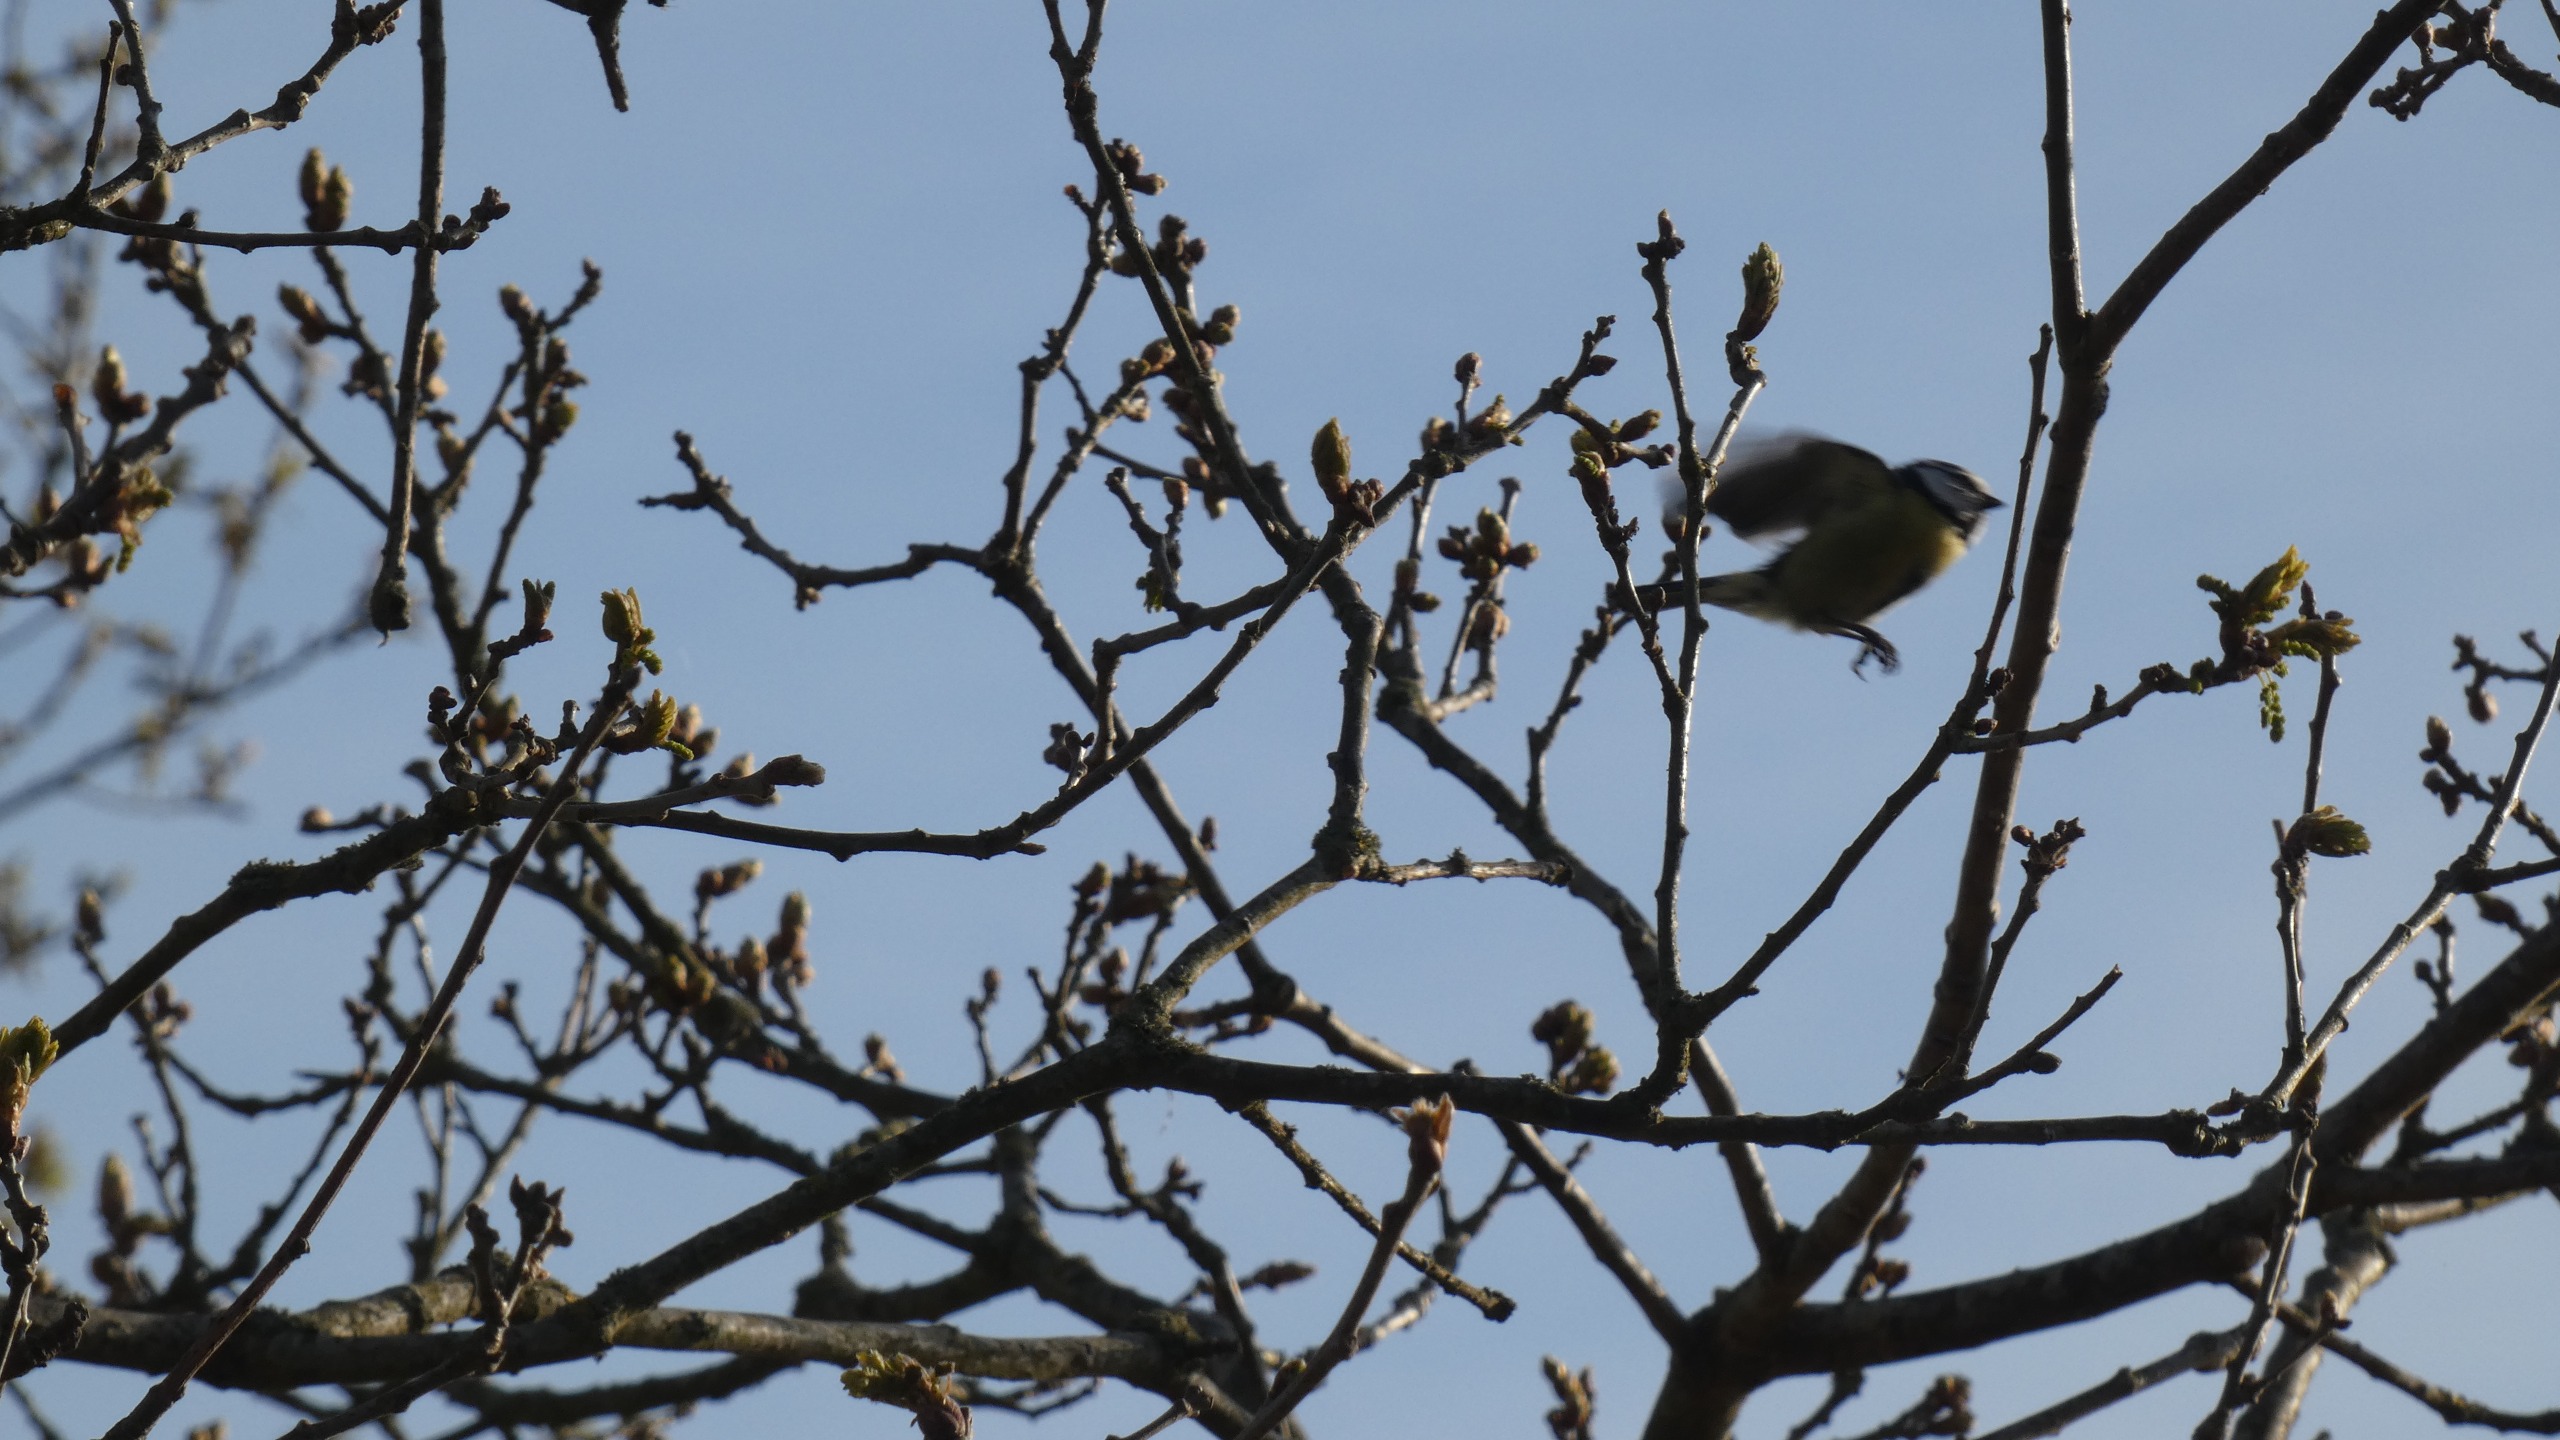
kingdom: Animalia
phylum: Chordata
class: Aves
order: Passeriformes
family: Paridae
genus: Cyanistes
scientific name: Cyanistes caeruleus
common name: Blåmejse
